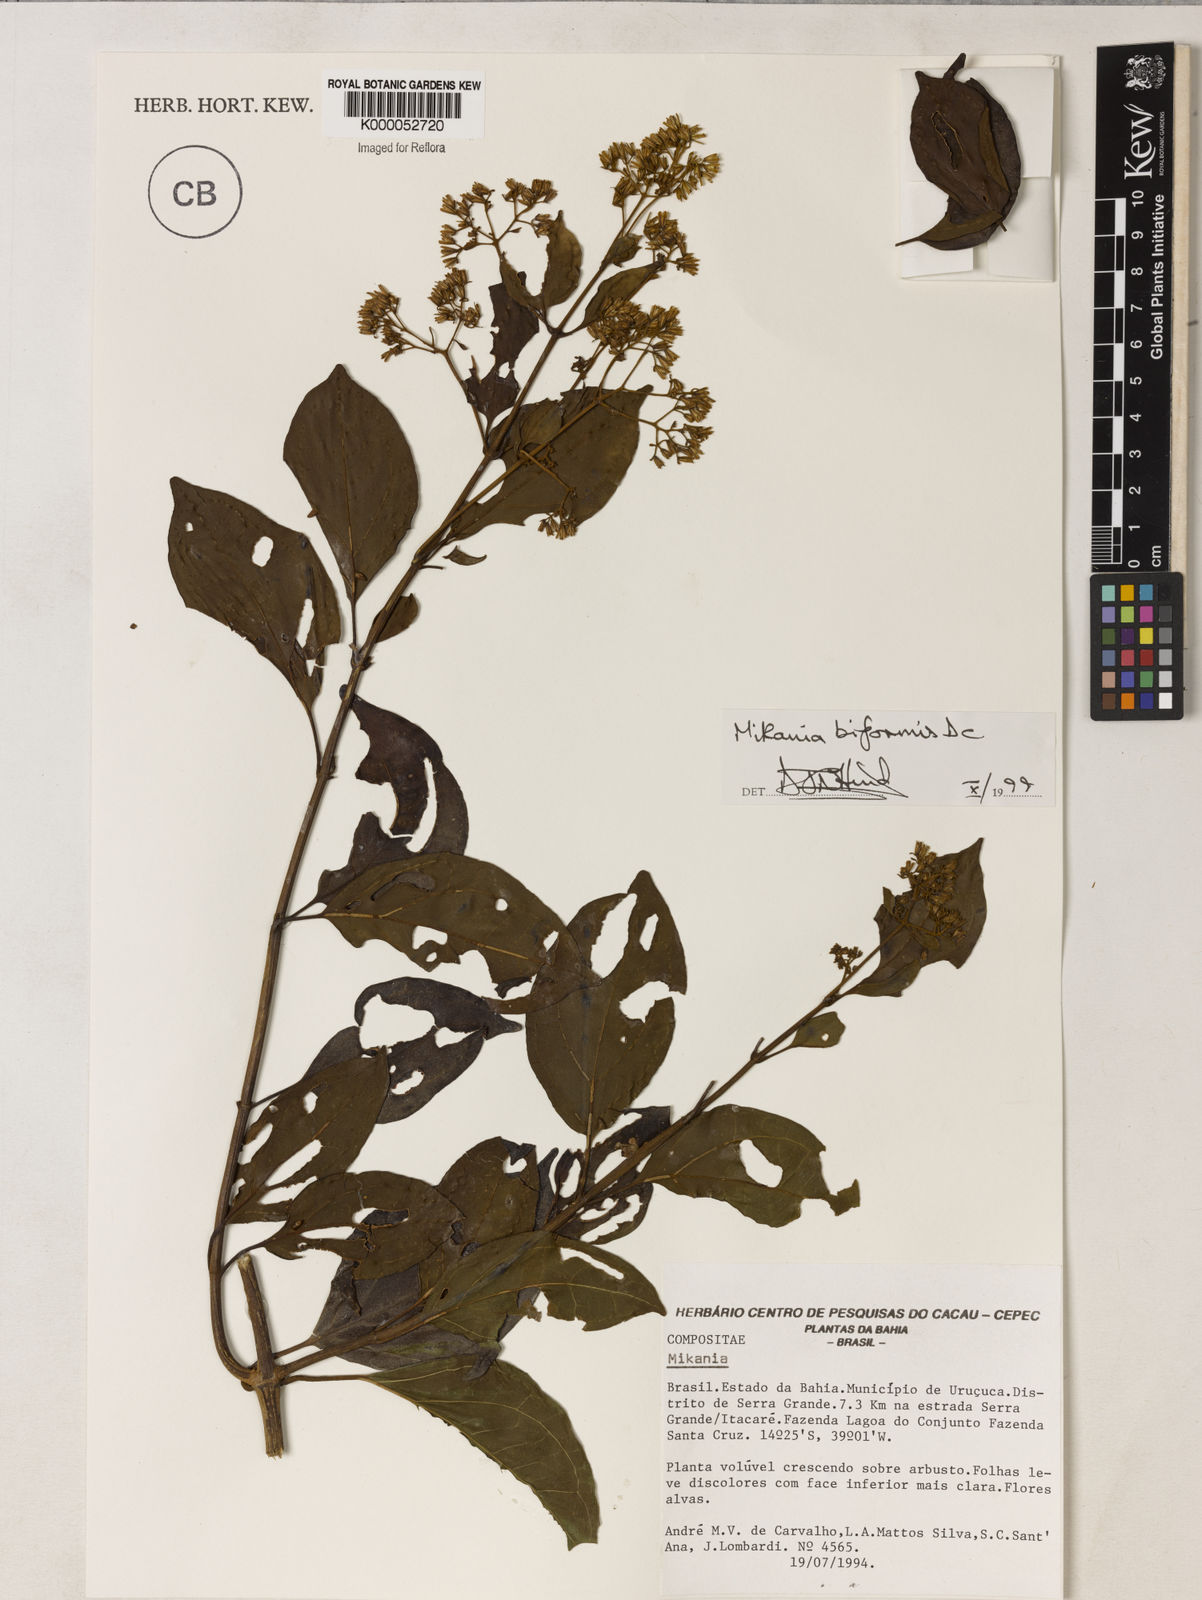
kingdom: Plantae
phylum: Tracheophyta
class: Magnoliopsida
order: Asterales
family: Asteraceae
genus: Mikania
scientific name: Mikania biformis
